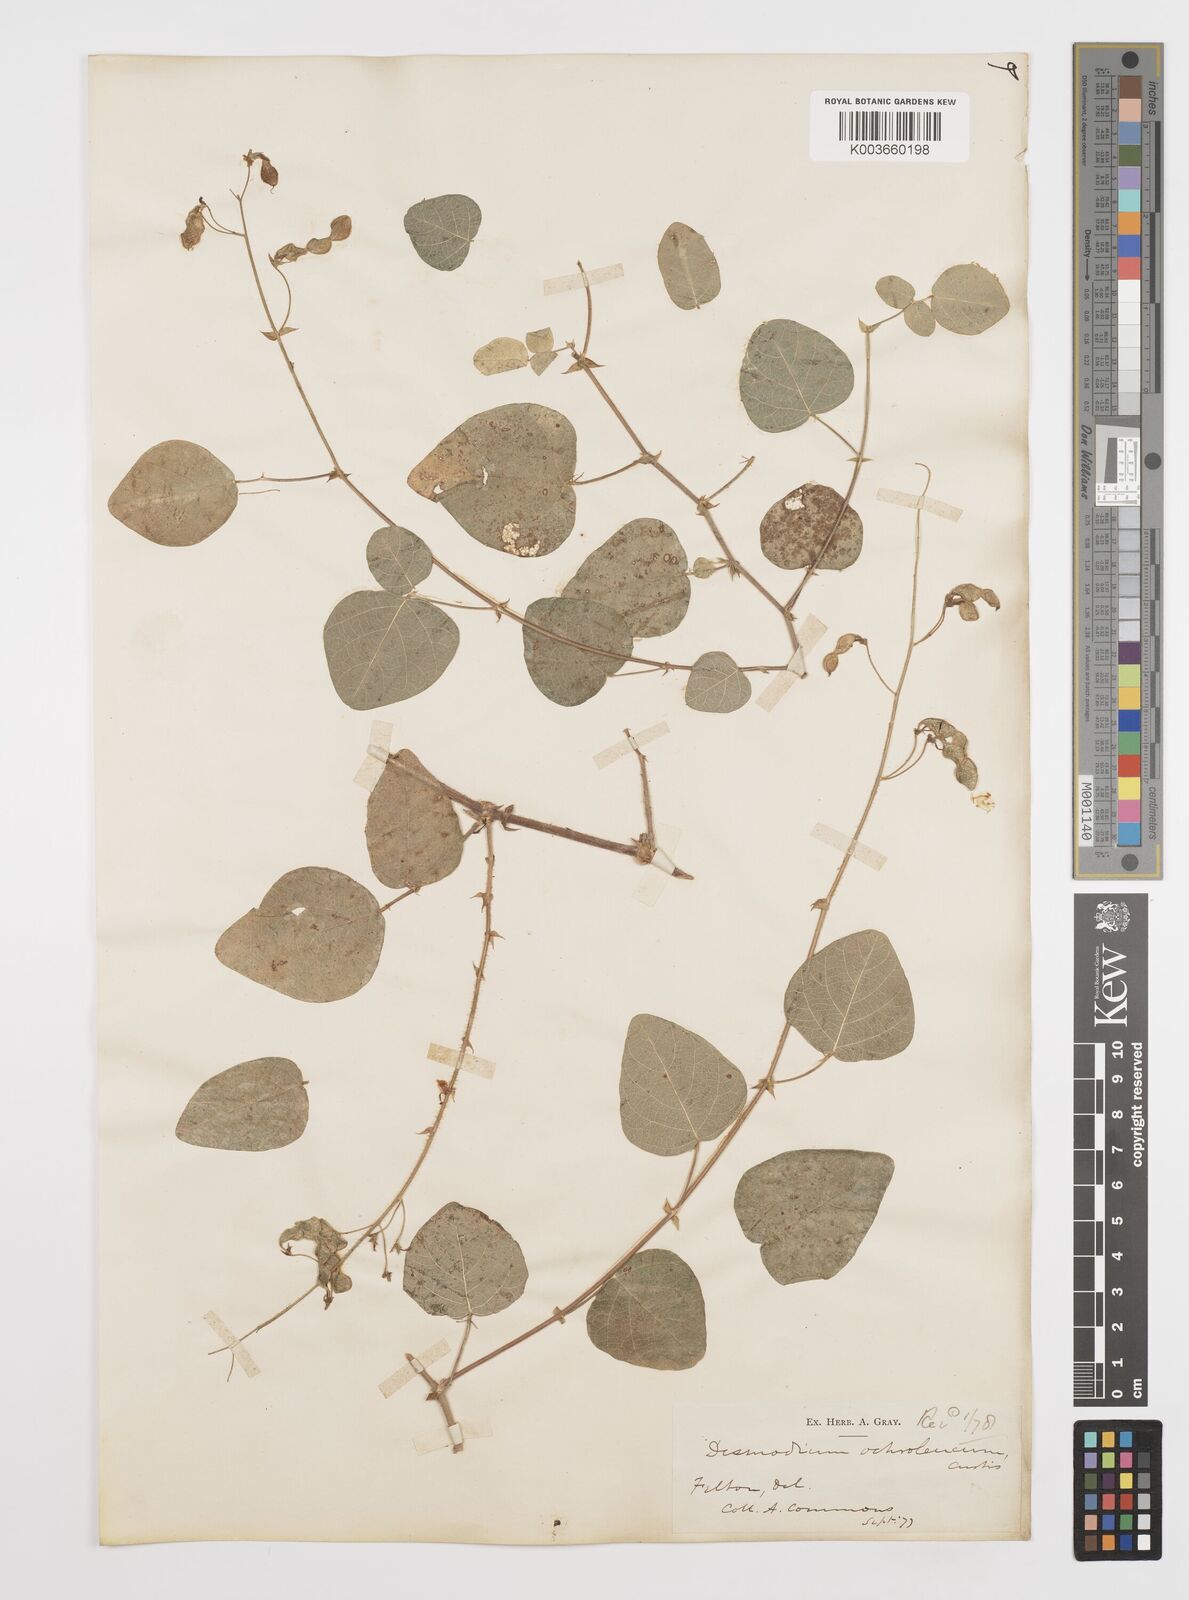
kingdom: Plantae
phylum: Tracheophyta
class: Magnoliopsida
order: Fabales
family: Fabaceae
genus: Desmodium
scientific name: Desmodium ochroleucum
